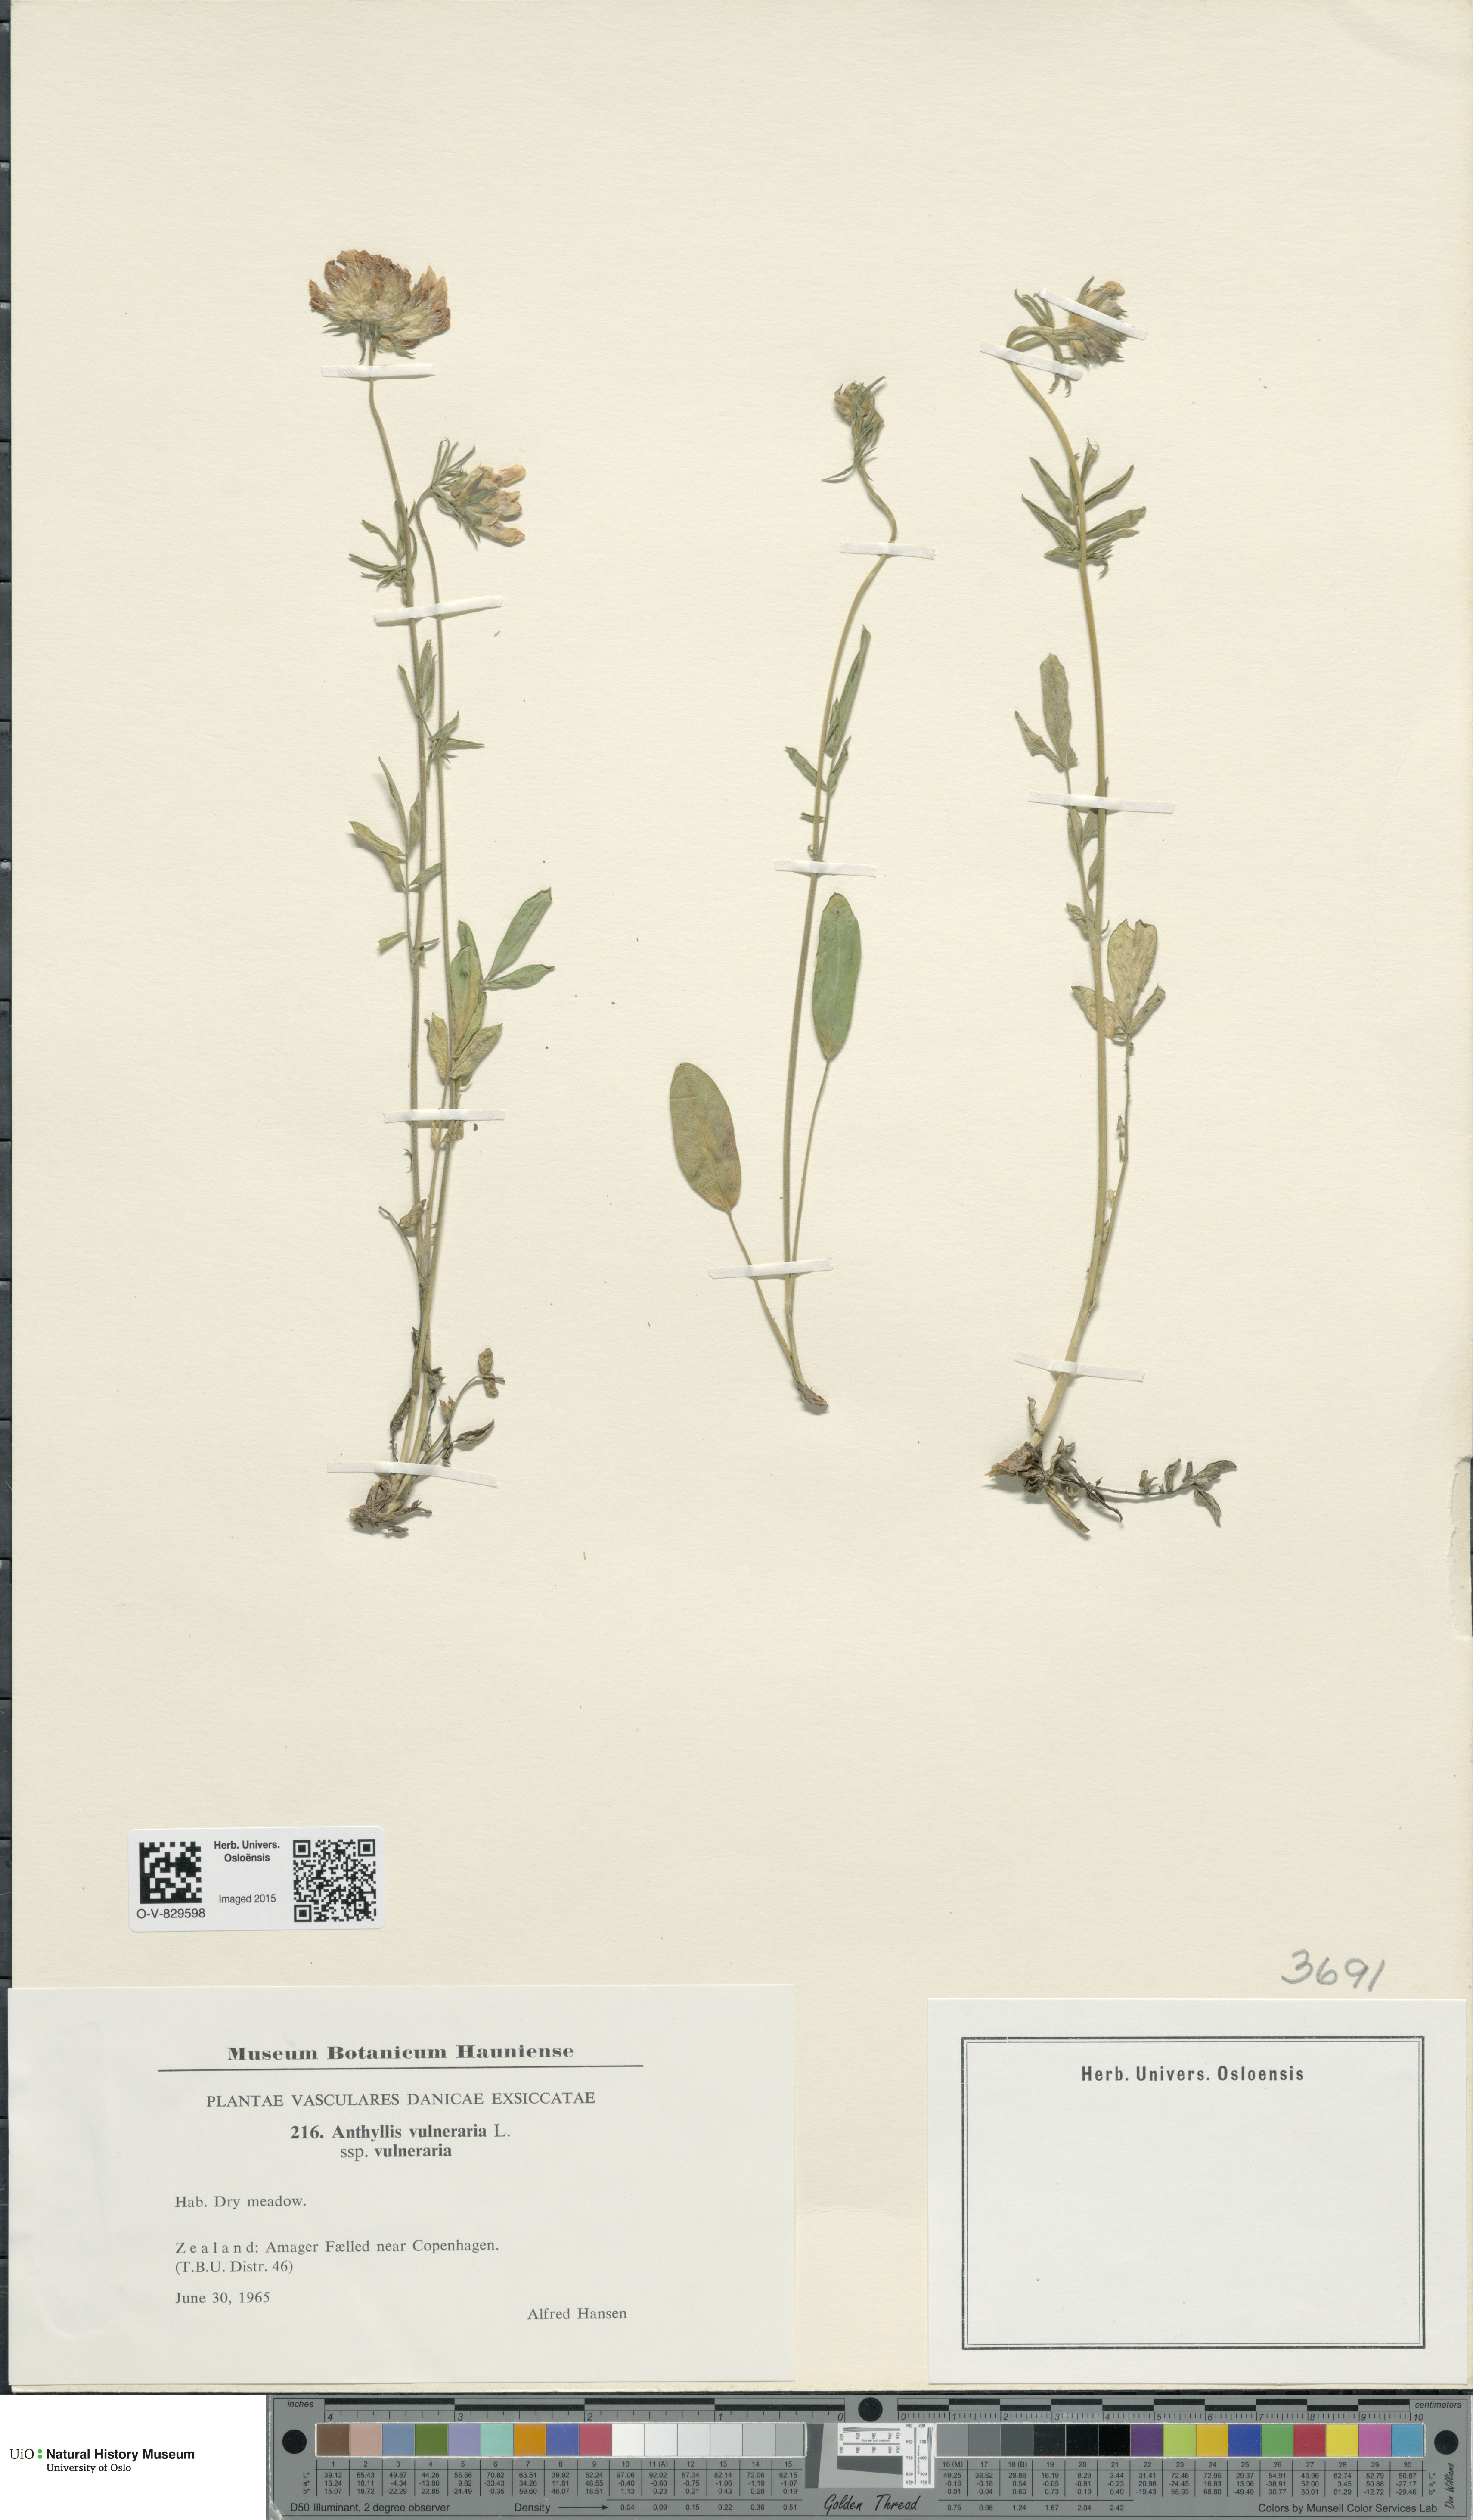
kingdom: Plantae
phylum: Tracheophyta
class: Magnoliopsida
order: Fabales
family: Fabaceae
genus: Anthyllis
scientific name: Anthyllis vulneraria
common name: Kidney vetch
